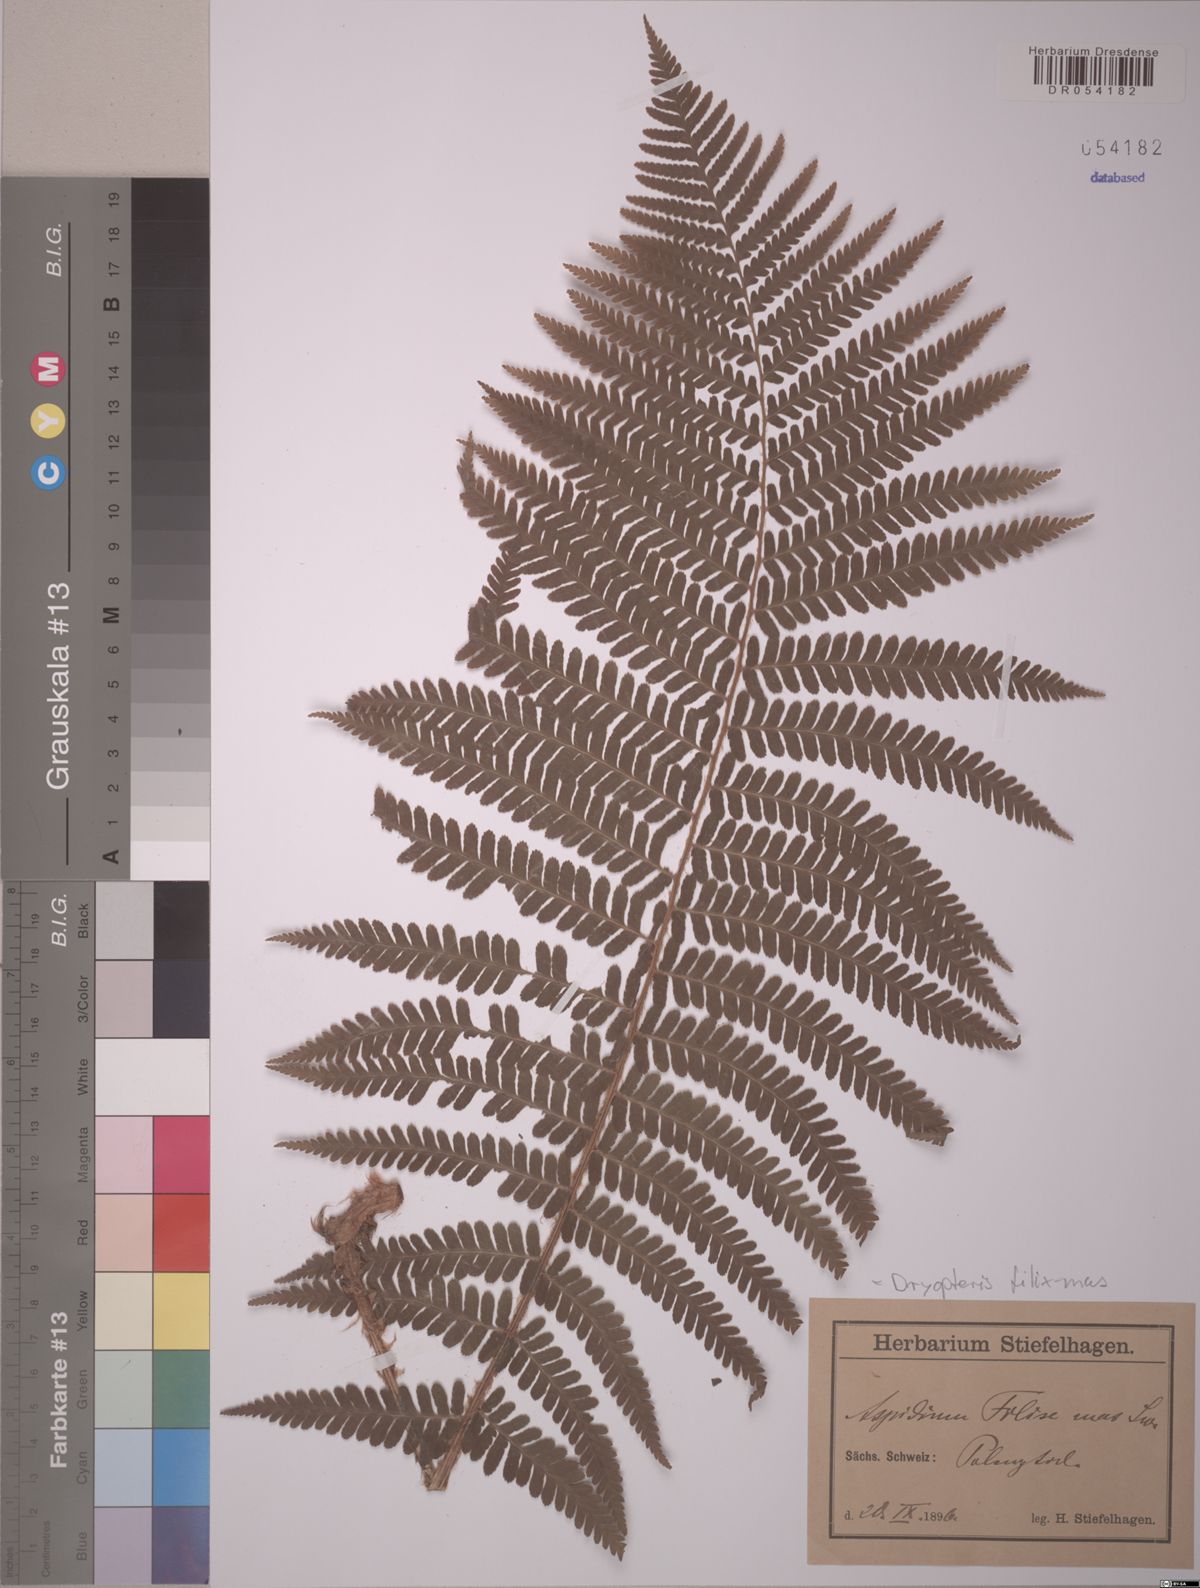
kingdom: Plantae
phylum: Tracheophyta
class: Polypodiopsida
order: Polypodiales
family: Dryopteridaceae
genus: Dryopteris
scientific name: Dryopteris filix-mas
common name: Male fern
